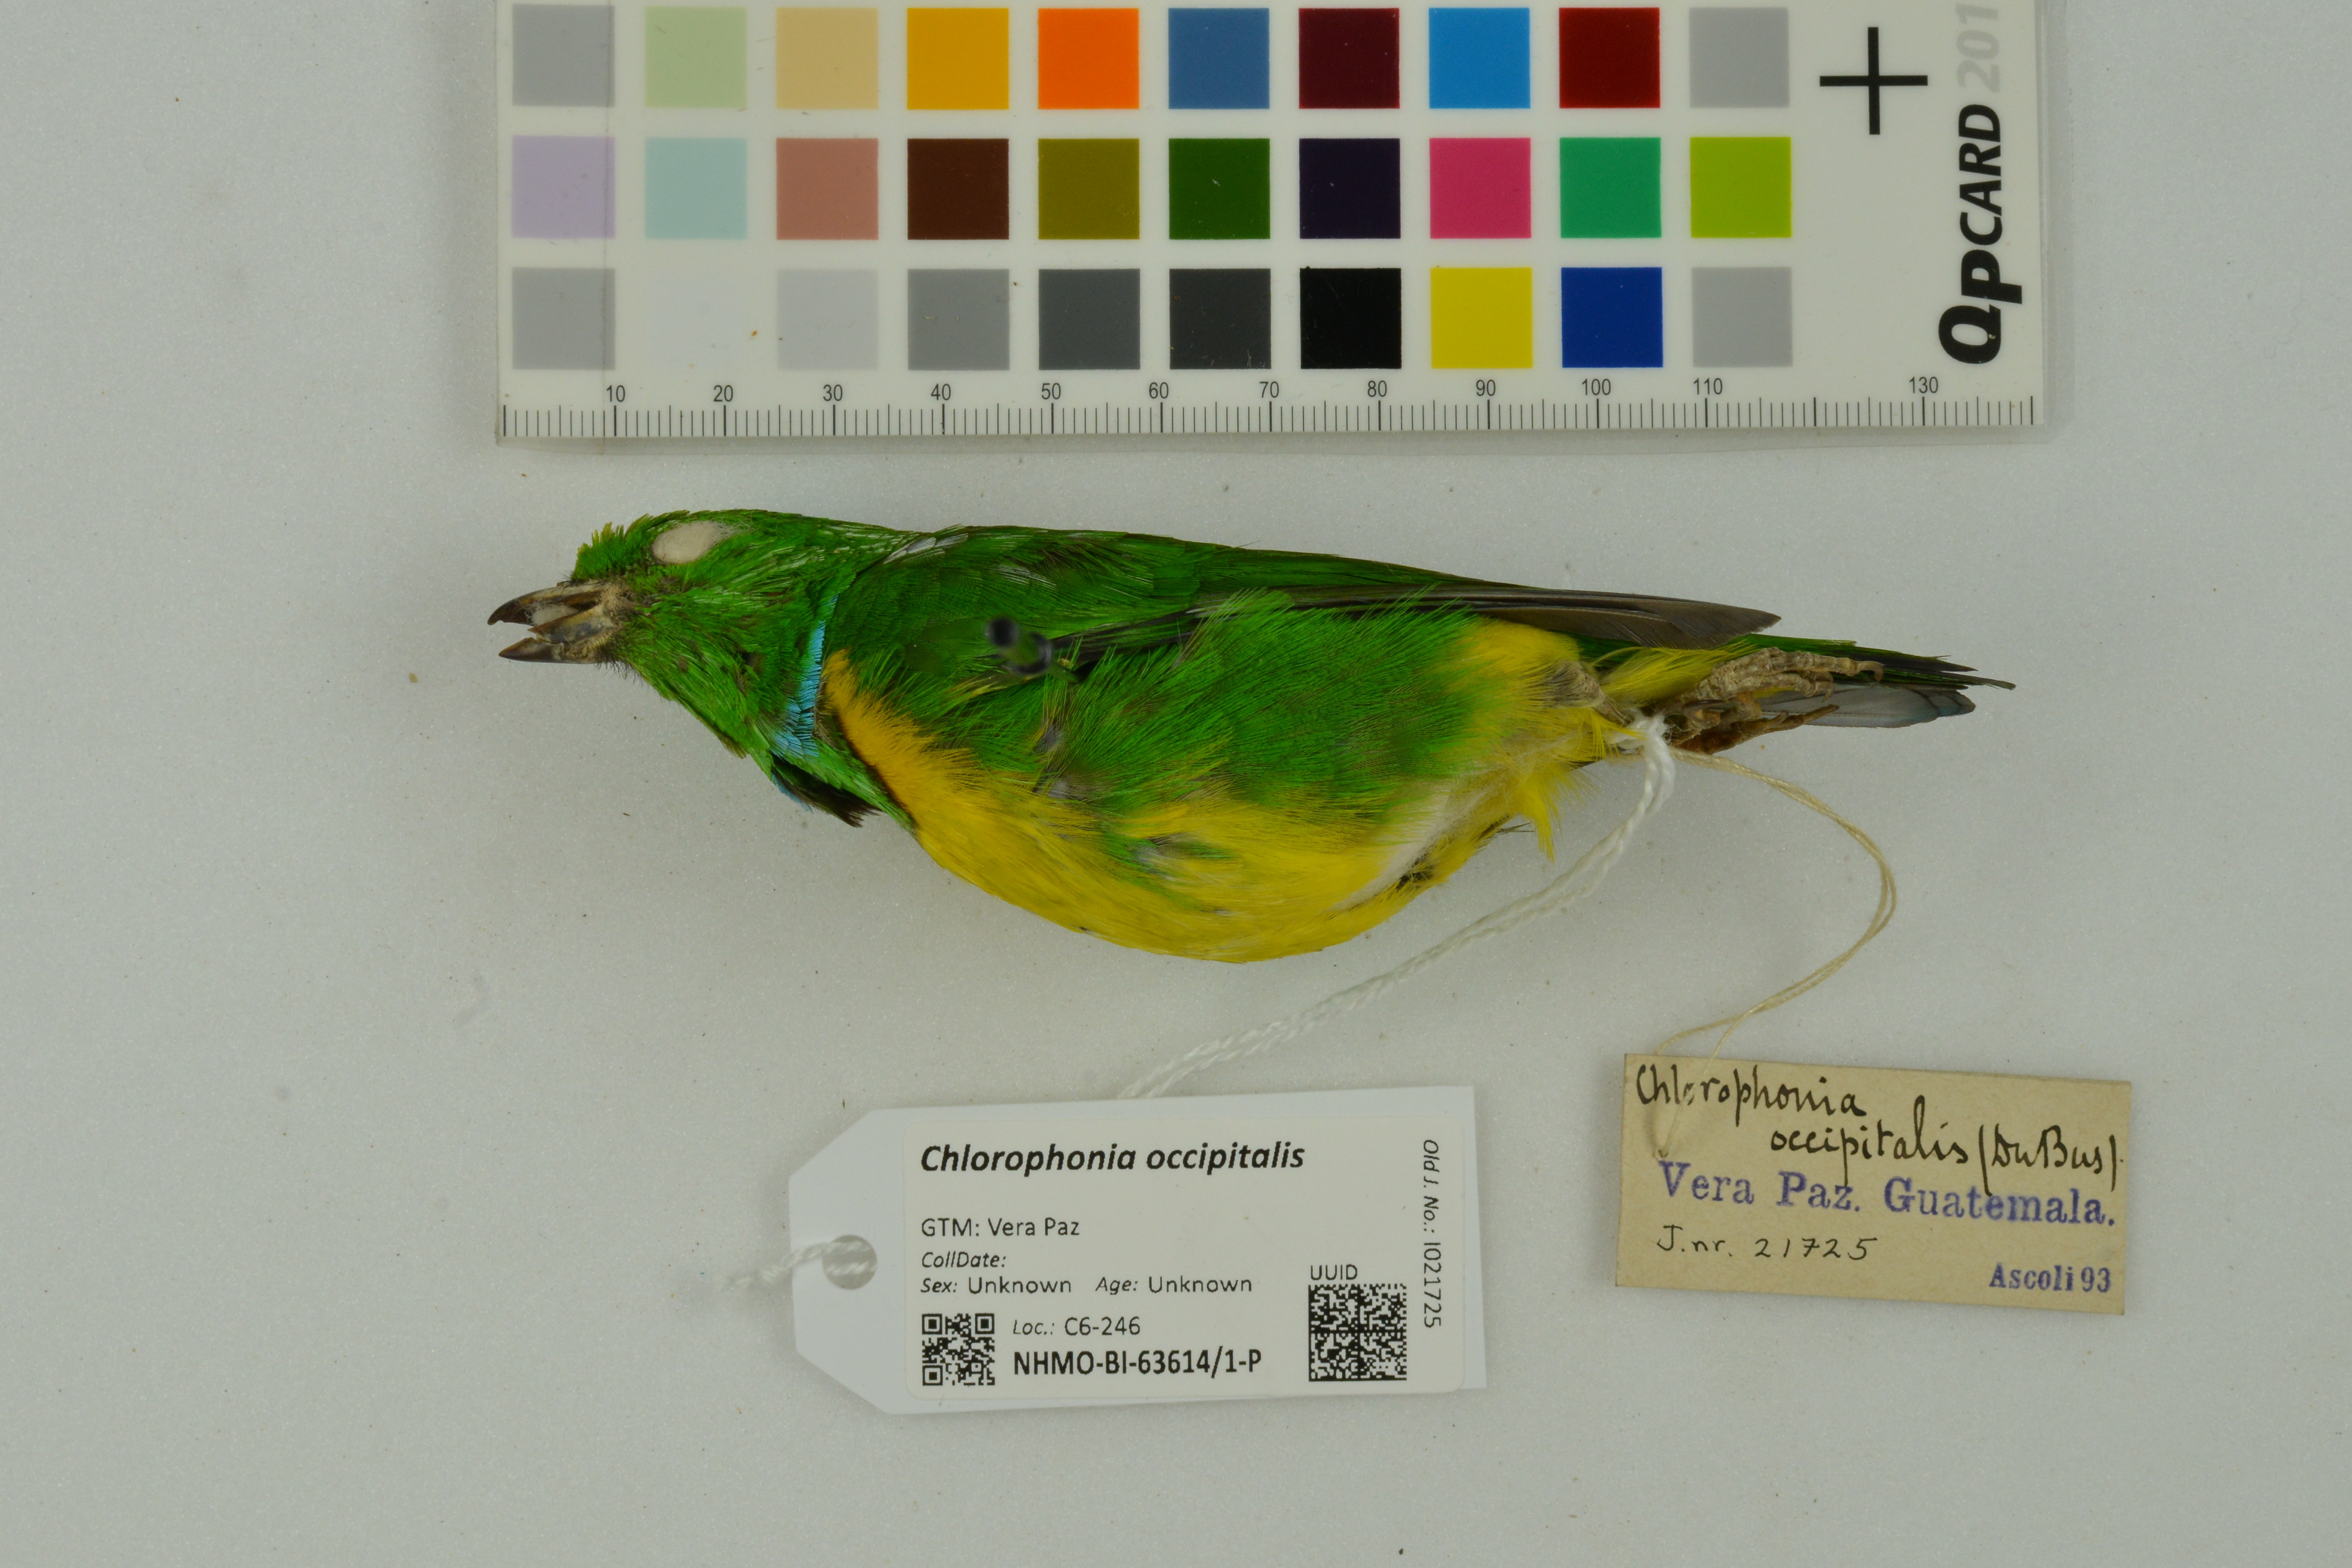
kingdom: Animalia
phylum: Chordata
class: Aves
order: Passeriformes
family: Fringillidae
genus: Chlorophonia
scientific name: Chlorophonia occipitalis
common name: Blue-crowned chlorophonia
